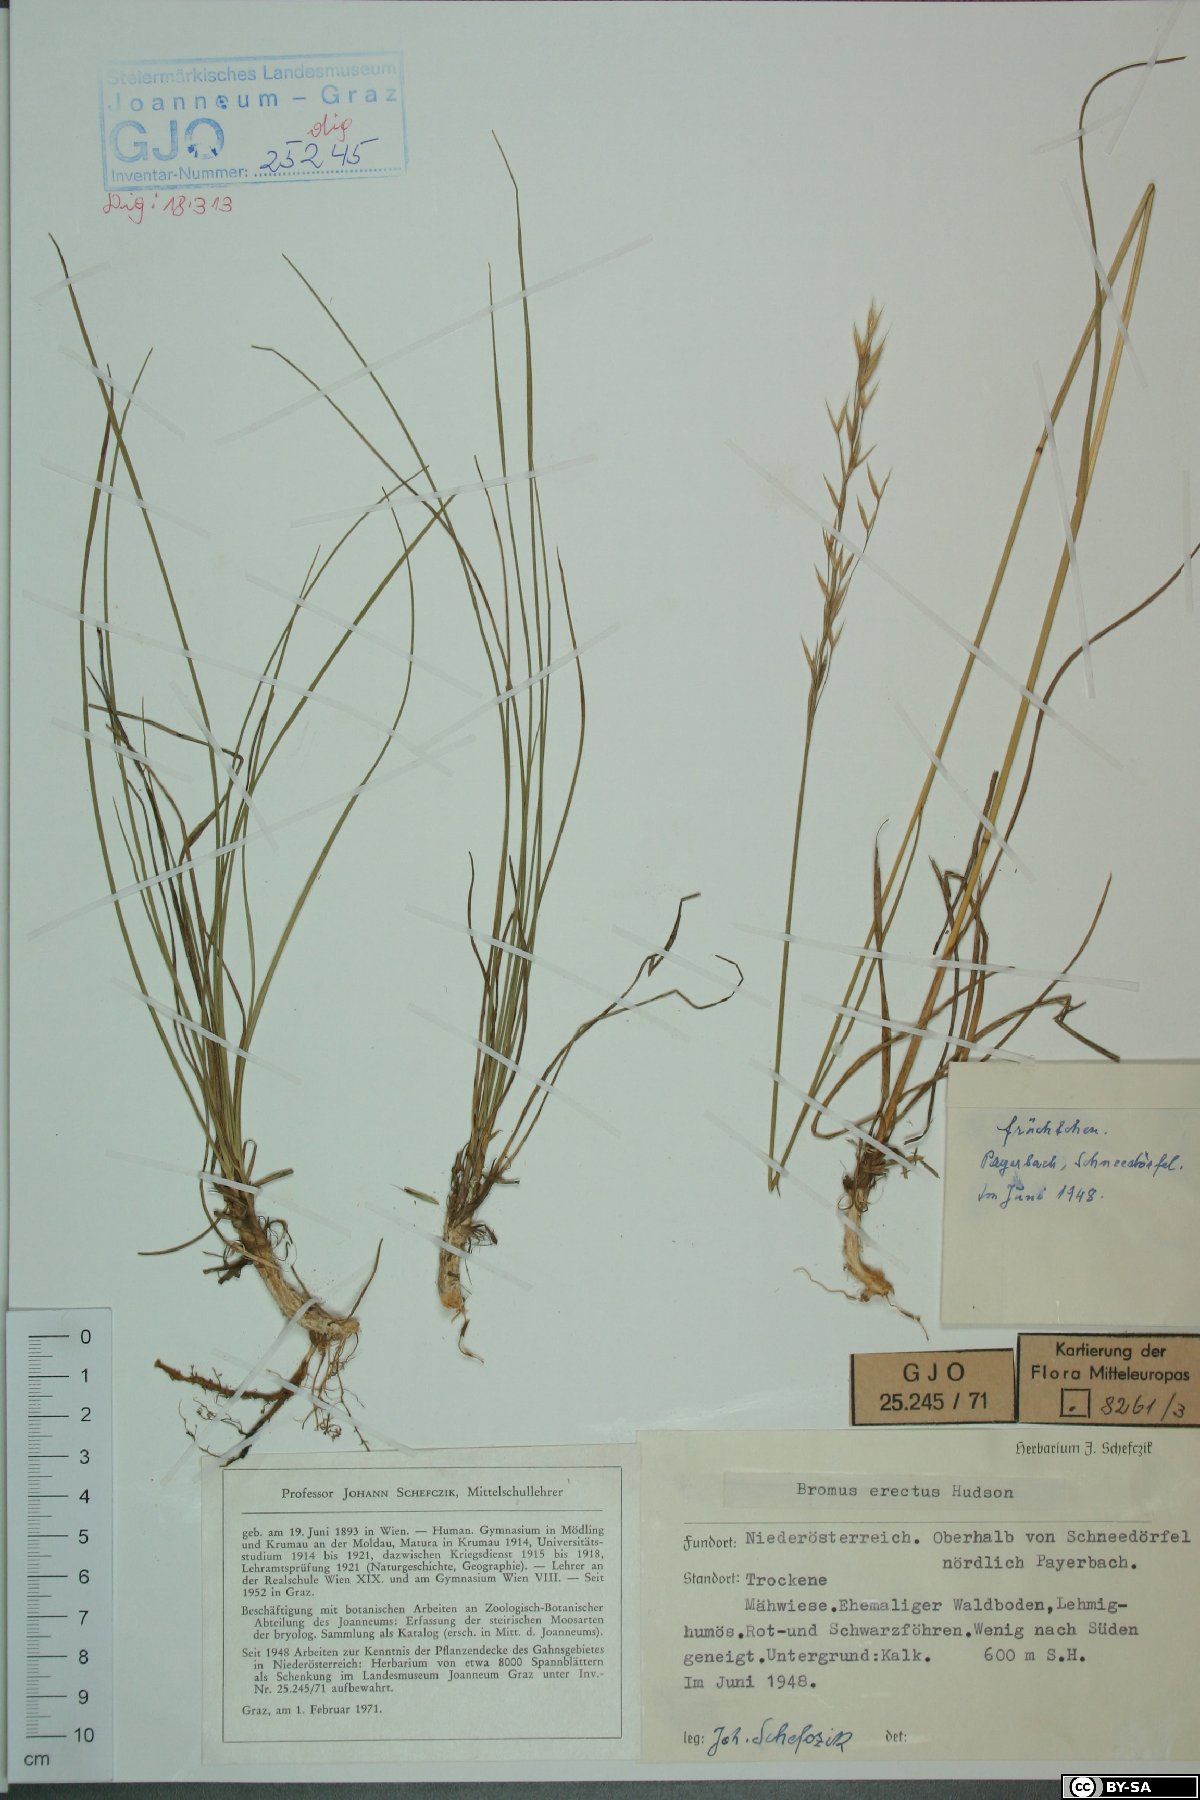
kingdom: Plantae
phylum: Tracheophyta
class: Liliopsida
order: Poales
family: Poaceae
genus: Bromus
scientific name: Bromus erectus
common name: Erect brome
